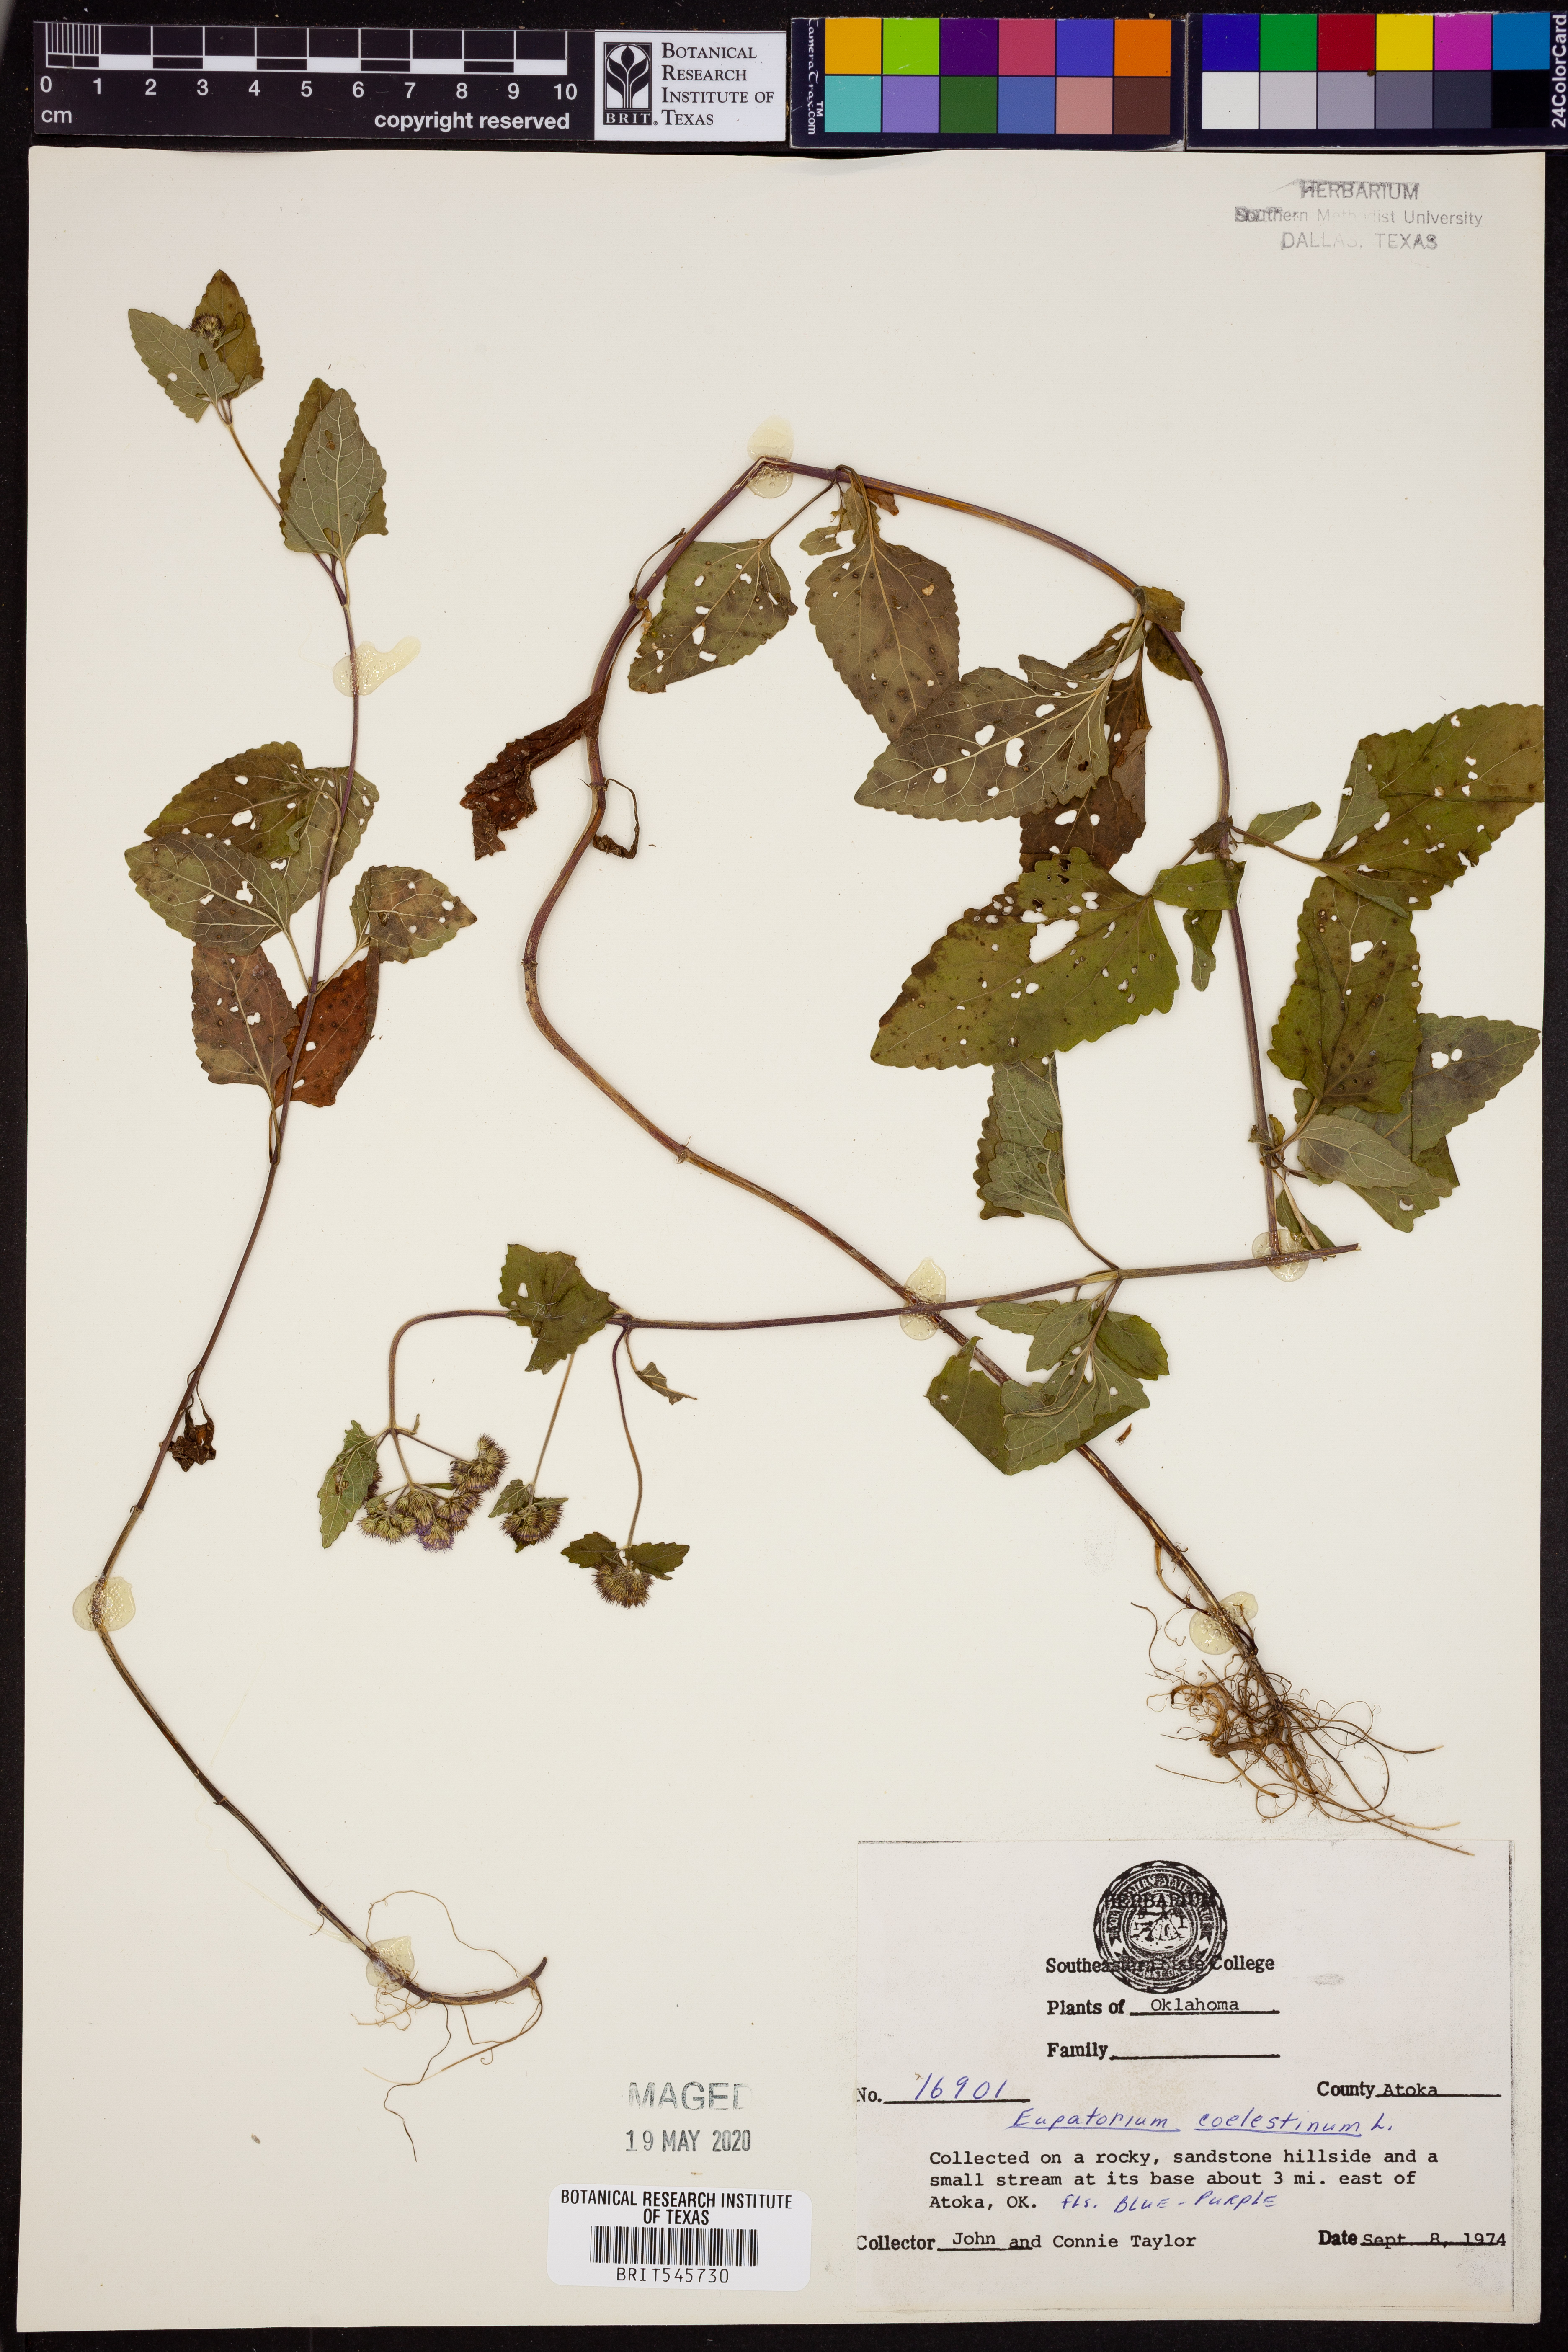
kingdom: Plantae
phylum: Tracheophyta
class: Magnoliopsida
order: Asterales
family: Asteraceae
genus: Conoclinium
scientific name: Conoclinium coelestinum
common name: Blue mistflower
